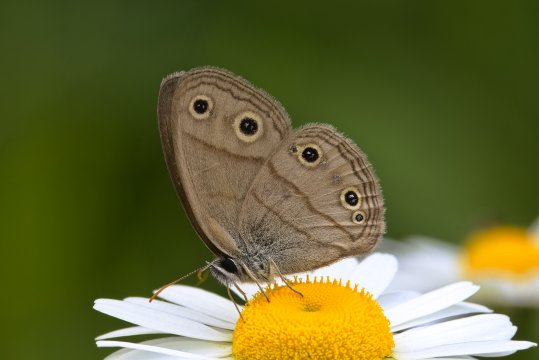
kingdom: Animalia
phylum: Arthropoda
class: Insecta
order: Lepidoptera
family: Nymphalidae
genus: Euptychia
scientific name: Euptychia cymela
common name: Little Wood Satyr
